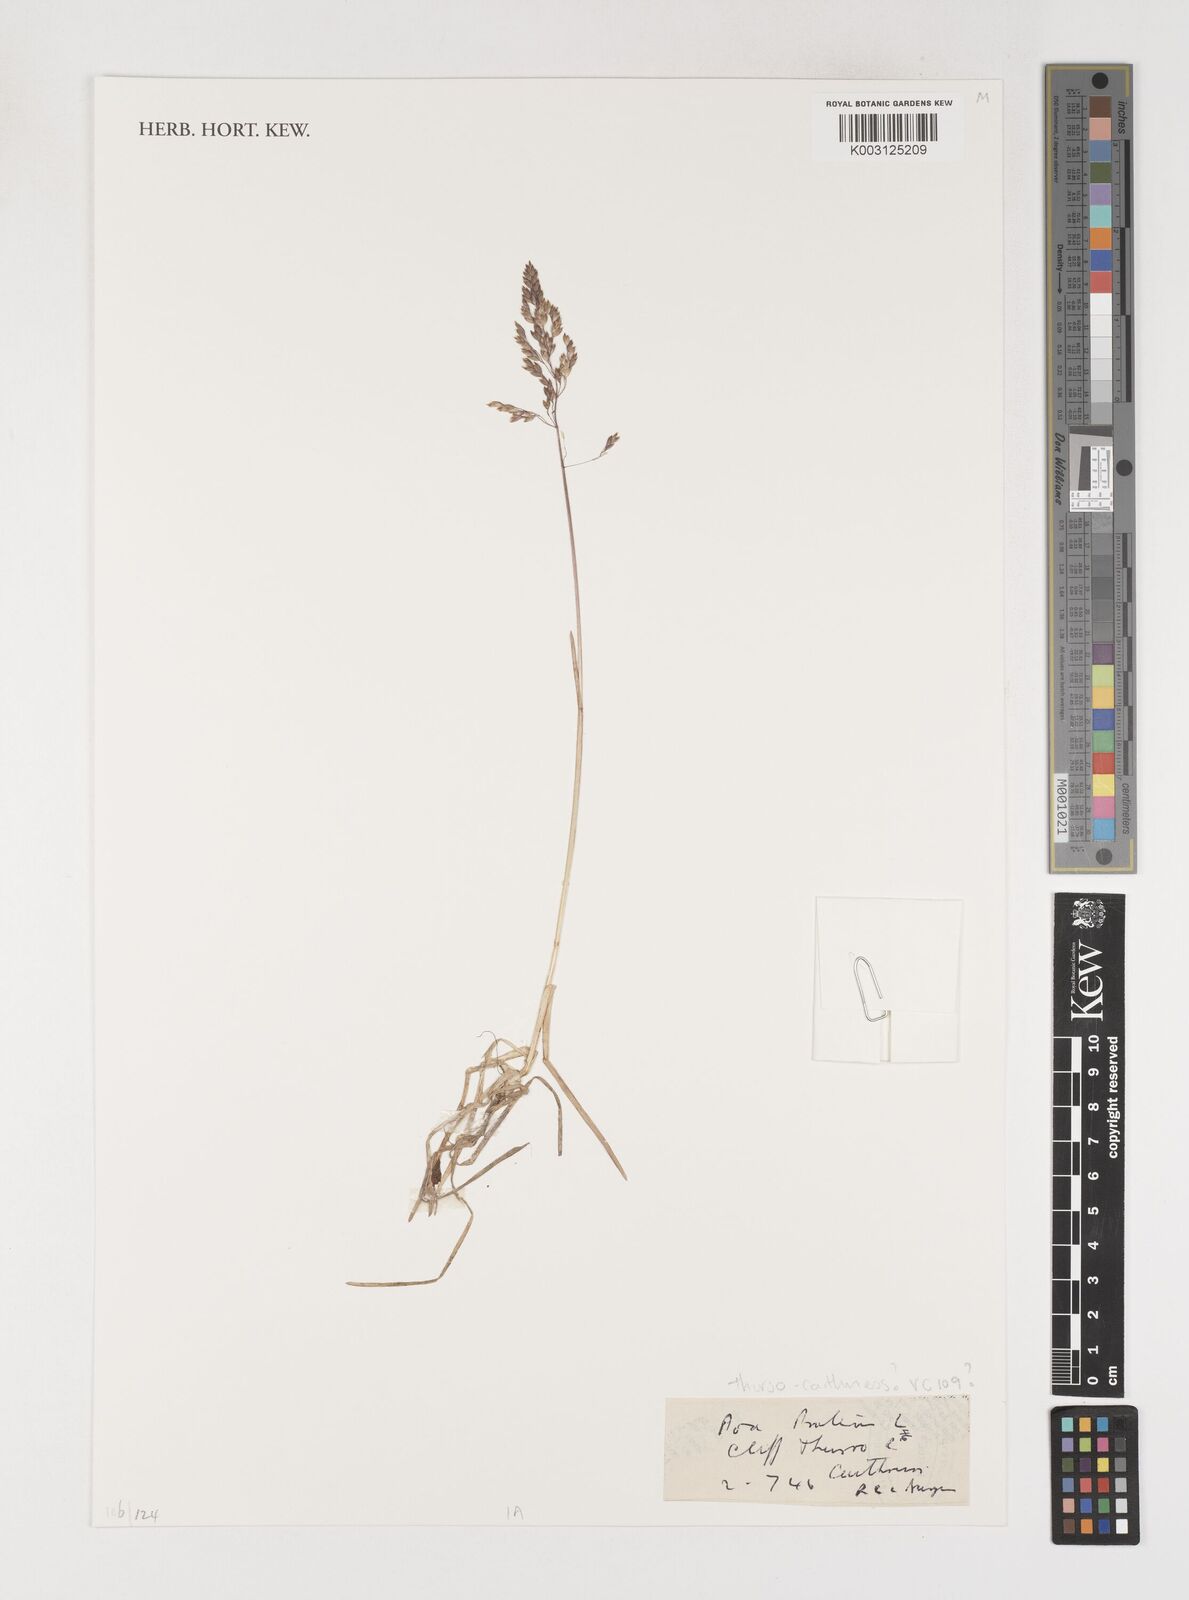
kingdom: Plantae
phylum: Tracheophyta
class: Liliopsida
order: Poales
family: Poaceae
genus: Poa
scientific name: Poa pratensis
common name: Kentucky bluegrass
